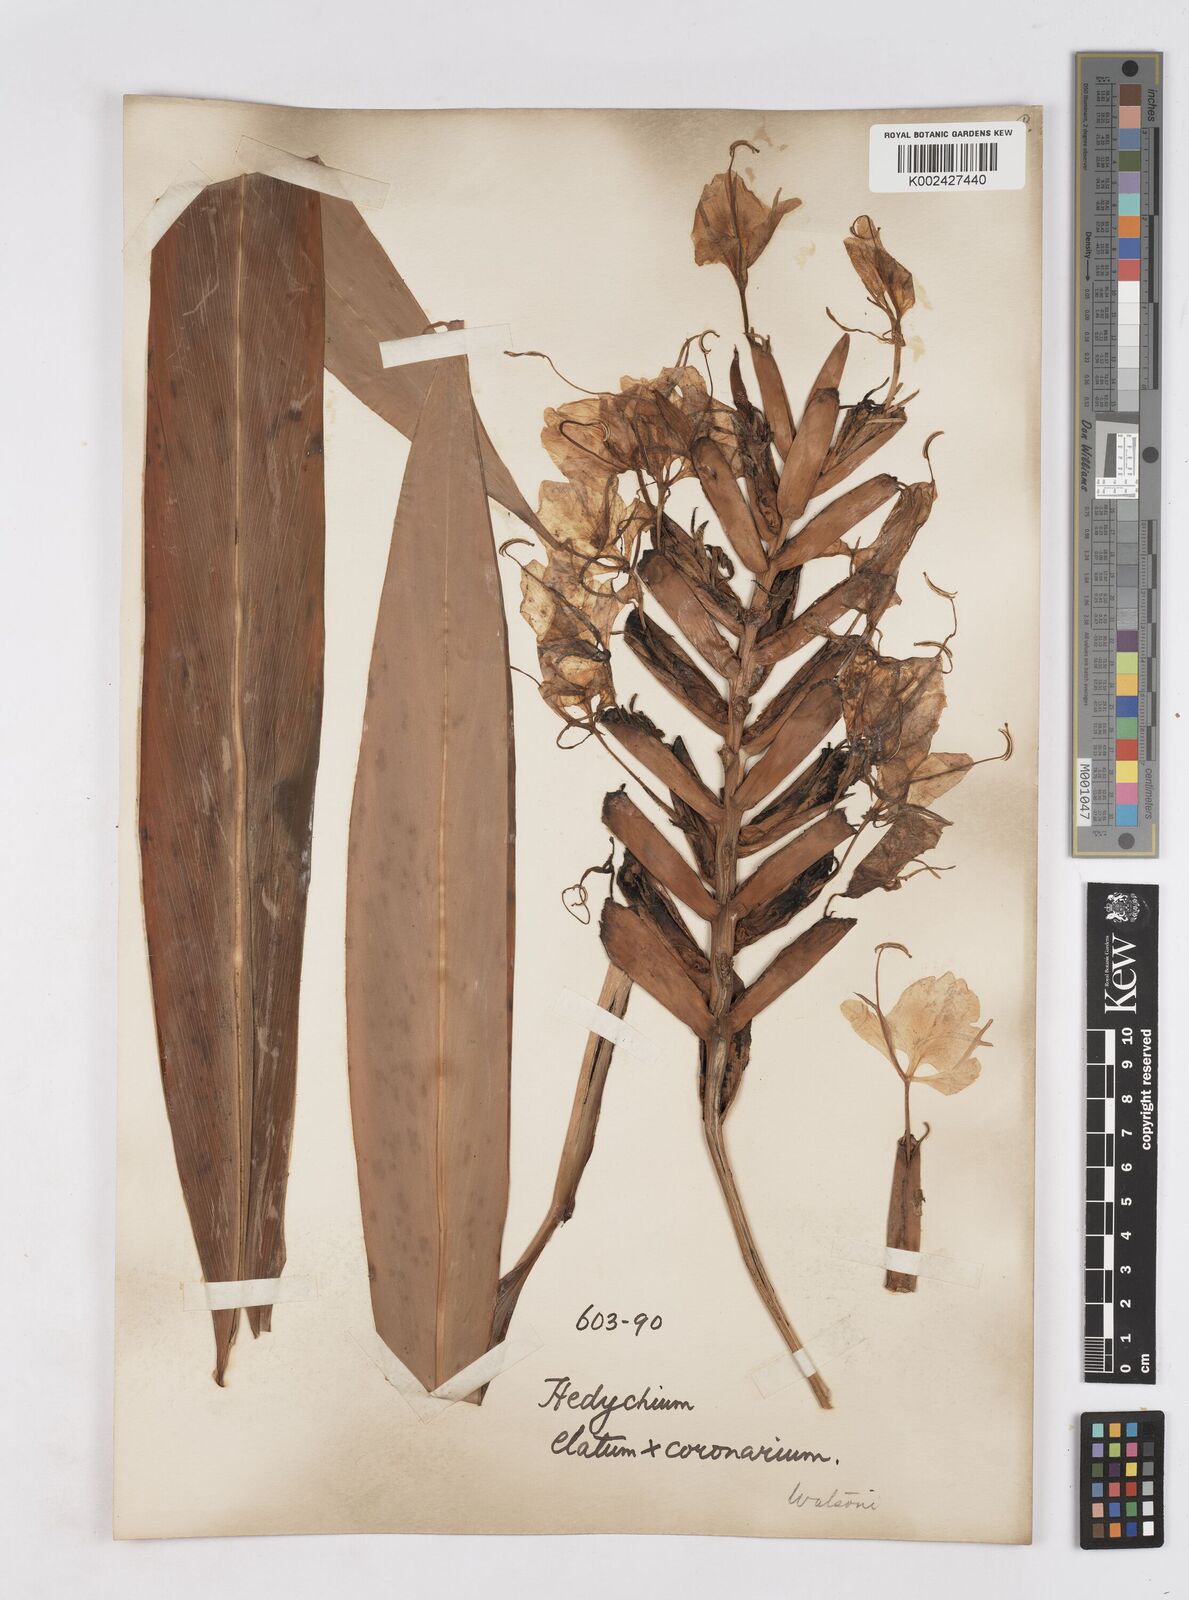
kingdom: Plantae
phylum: Tracheophyta
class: Liliopsida
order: Zingiberales
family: Zingiberaceae
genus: Hedychium
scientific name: Hedychium
